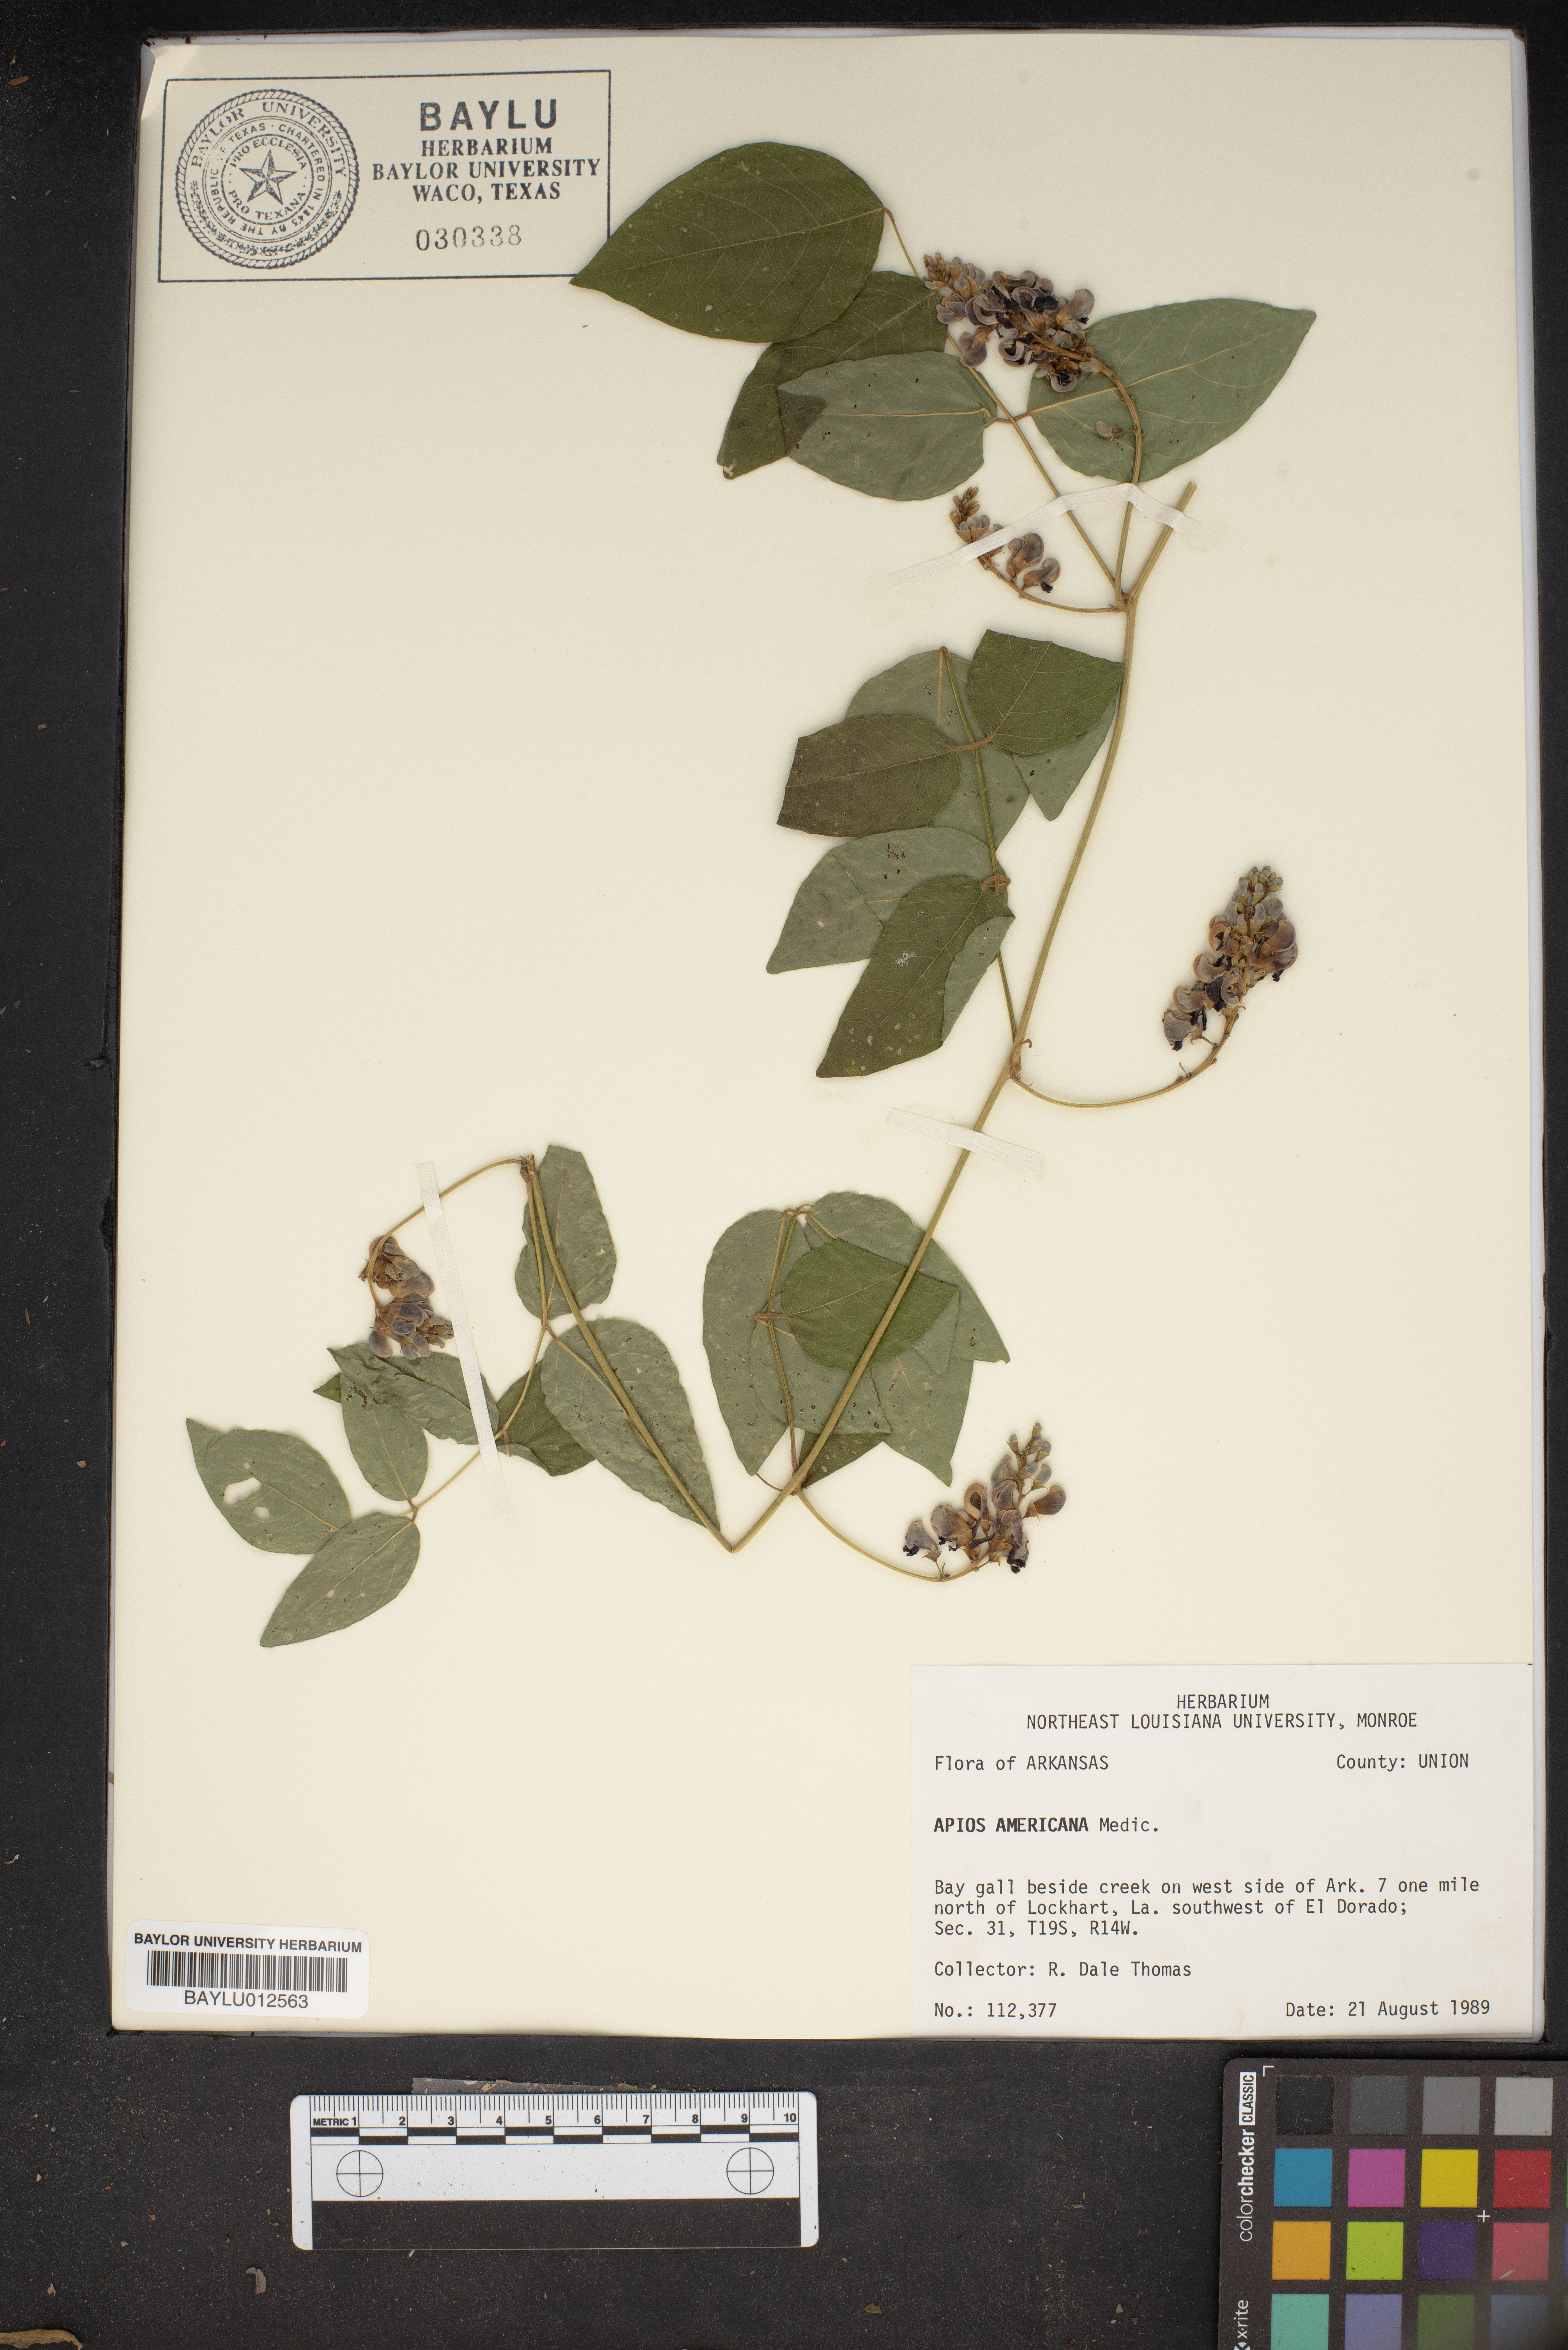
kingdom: Plantae
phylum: Tracheophyta
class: Magnoliopsida
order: Fabales
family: Fabaceae
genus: Apios
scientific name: Apios americana
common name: American potato-bean
